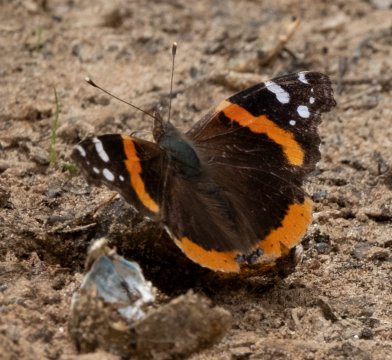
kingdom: Animalia
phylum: Arthropoda
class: Insecta
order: Lepidoptera
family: Nymphalidae
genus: Vanessa
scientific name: Vanessa atalanta
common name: Red Admiral
